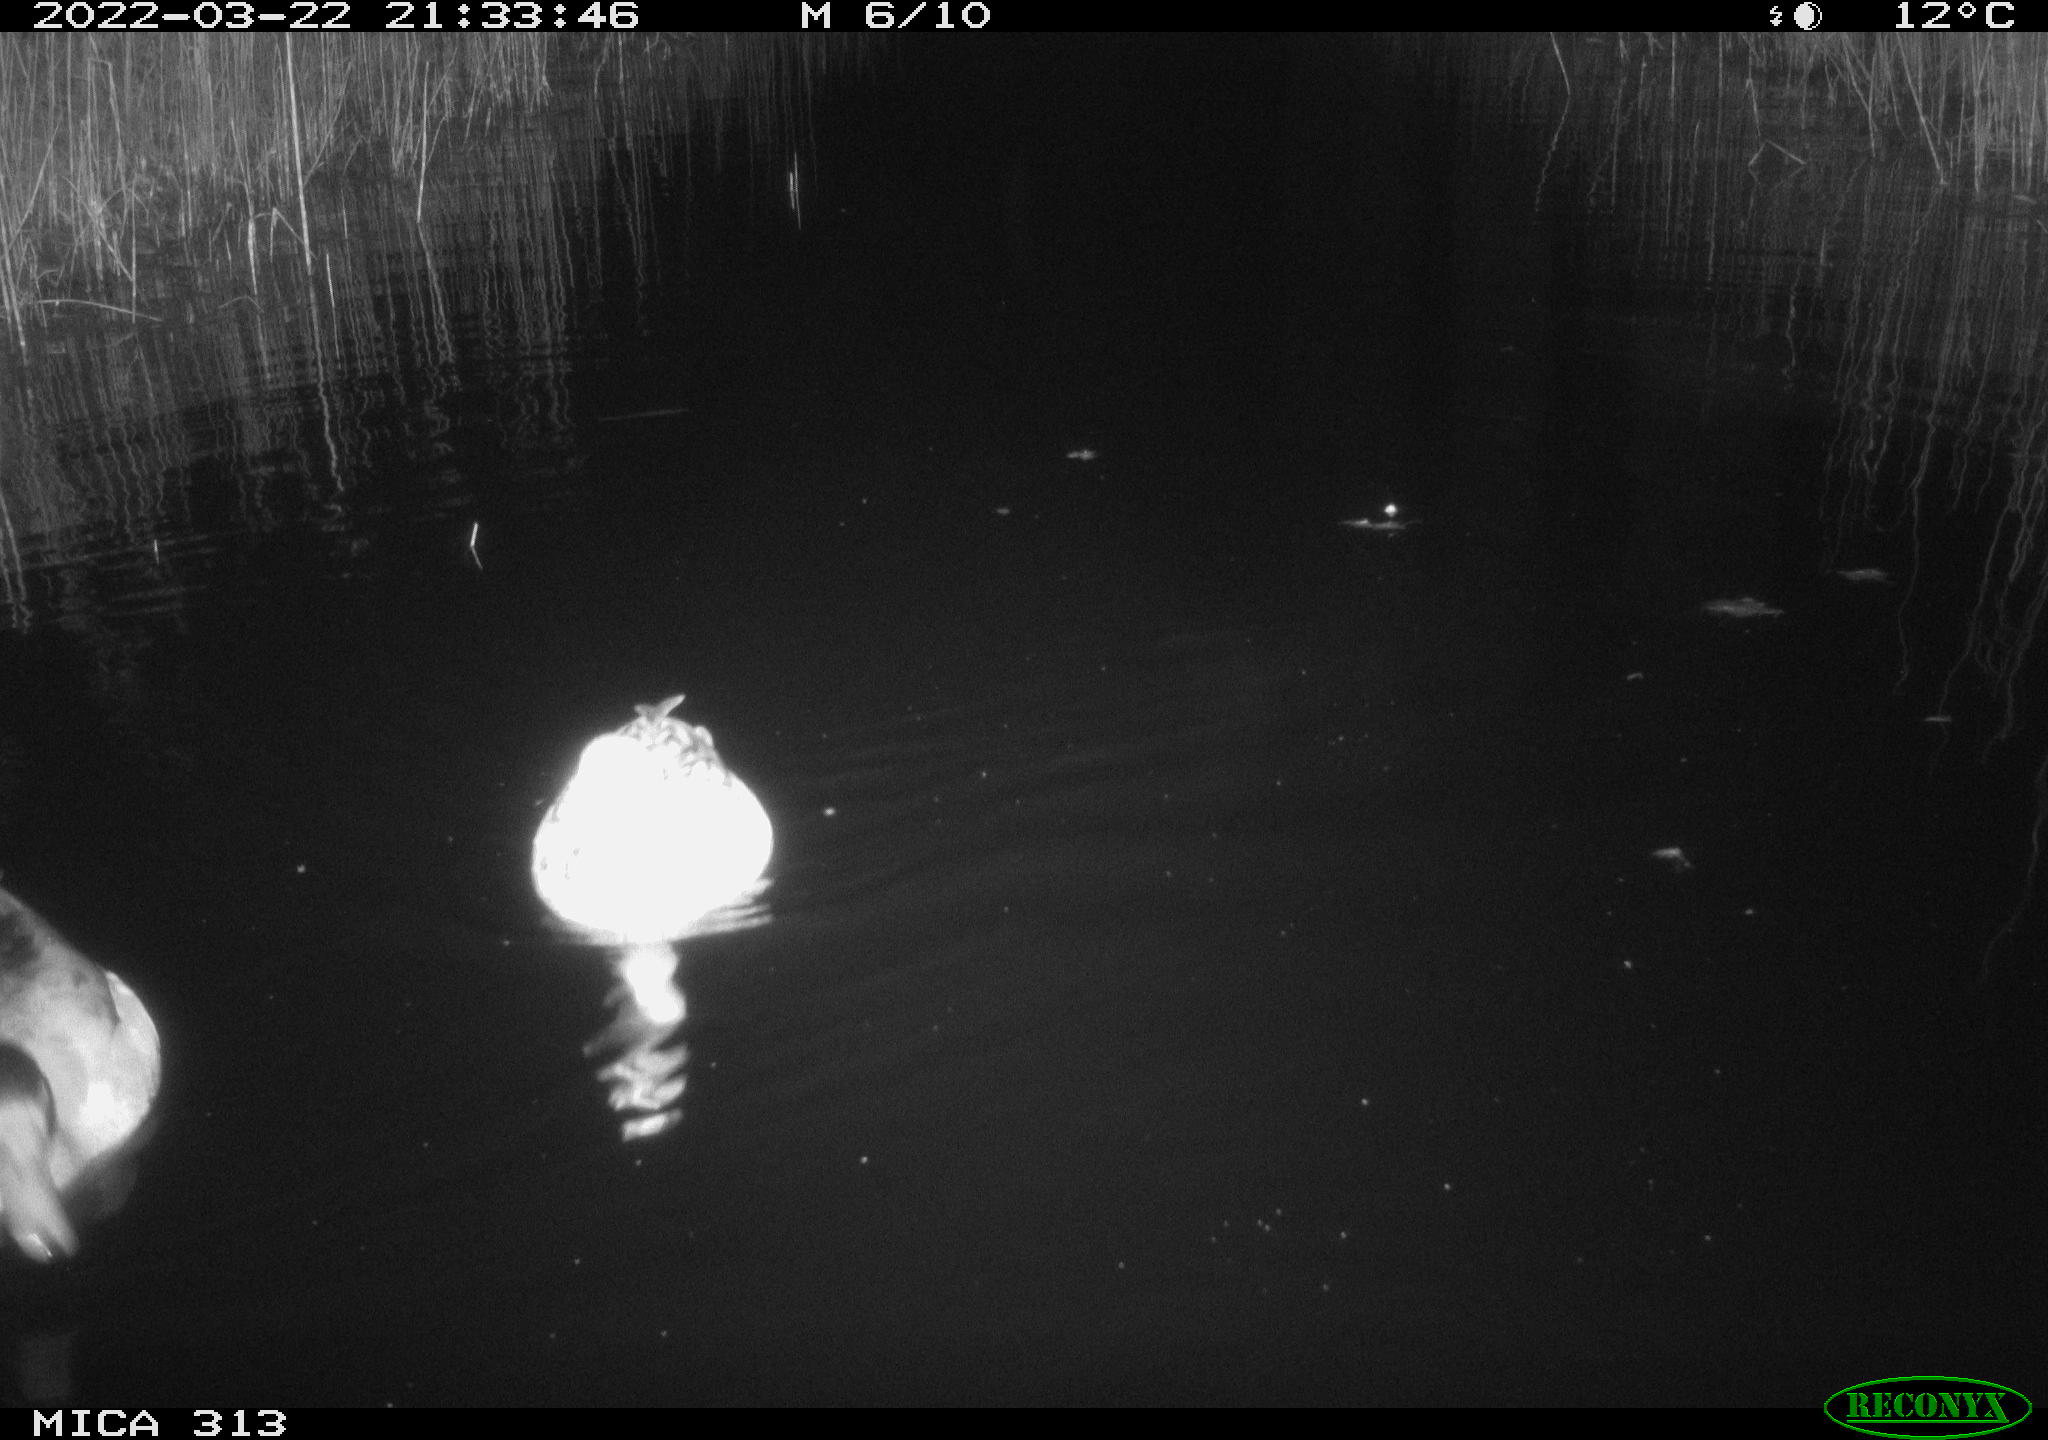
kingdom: Animalia
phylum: Chordata
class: Aves
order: Anseriformes
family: Anatidae
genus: Anas
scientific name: Anas platyrhynchos
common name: Mallard
